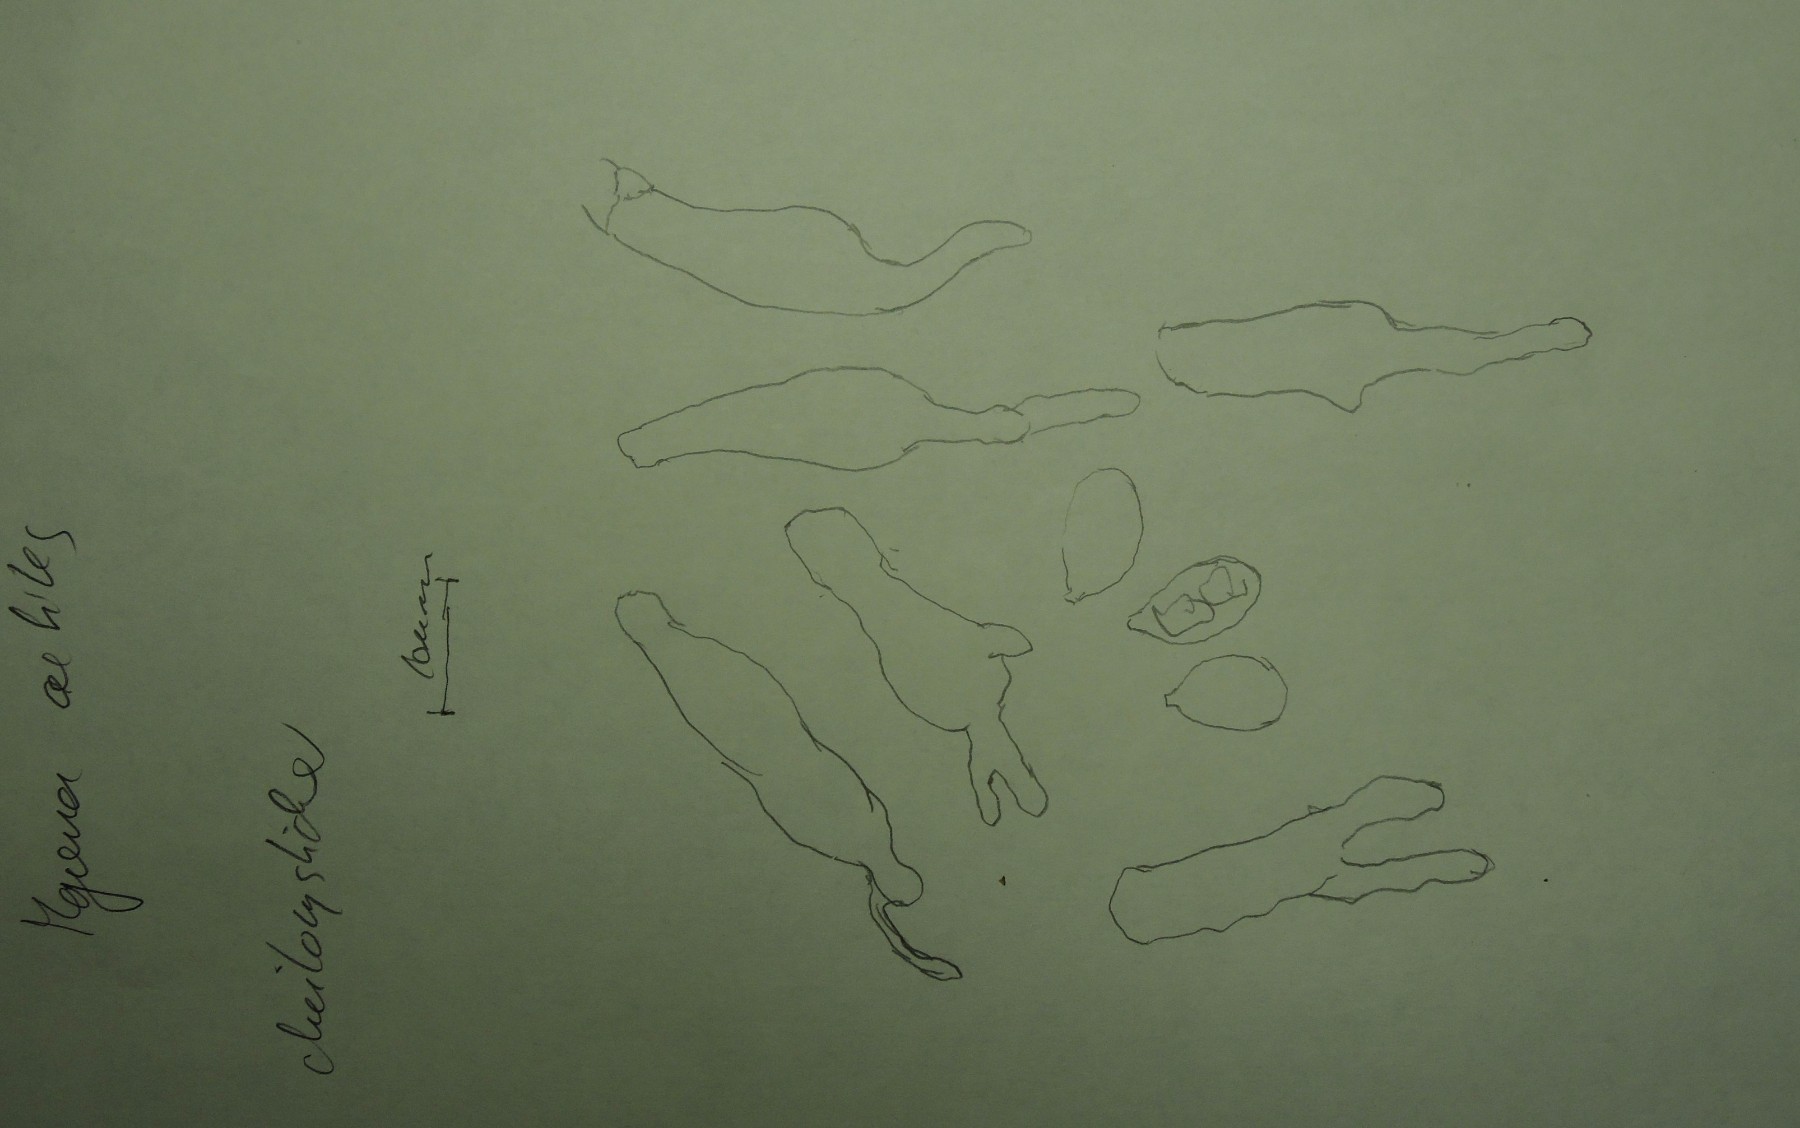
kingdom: Fungi
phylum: Basidiomycota
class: Agaricomycetes
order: Agaricales
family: Mycenaceae
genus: Mycena
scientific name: Mycena aetites
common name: plæne-huesvamp
